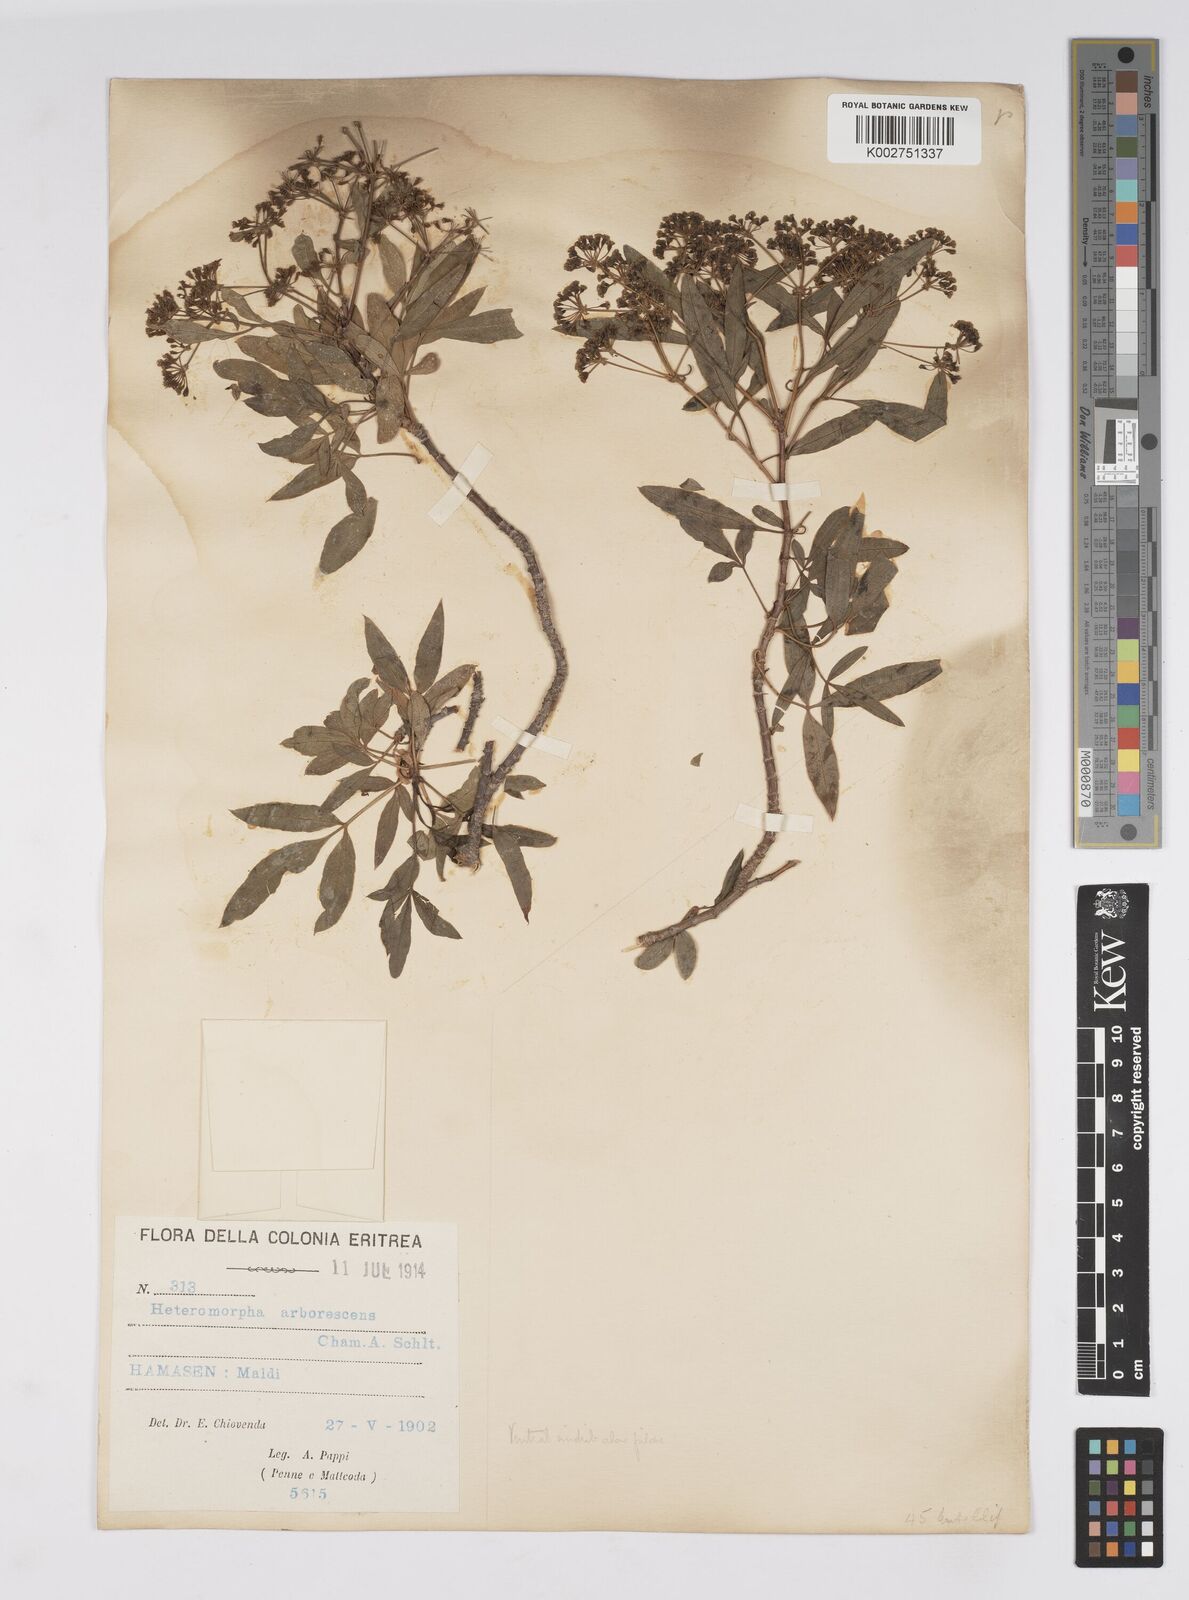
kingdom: Plantae
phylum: Tracheophyta
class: Magnoliopsida
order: Apiales
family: Apiaceae
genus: Heteromorpha
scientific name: Heteromorpha
